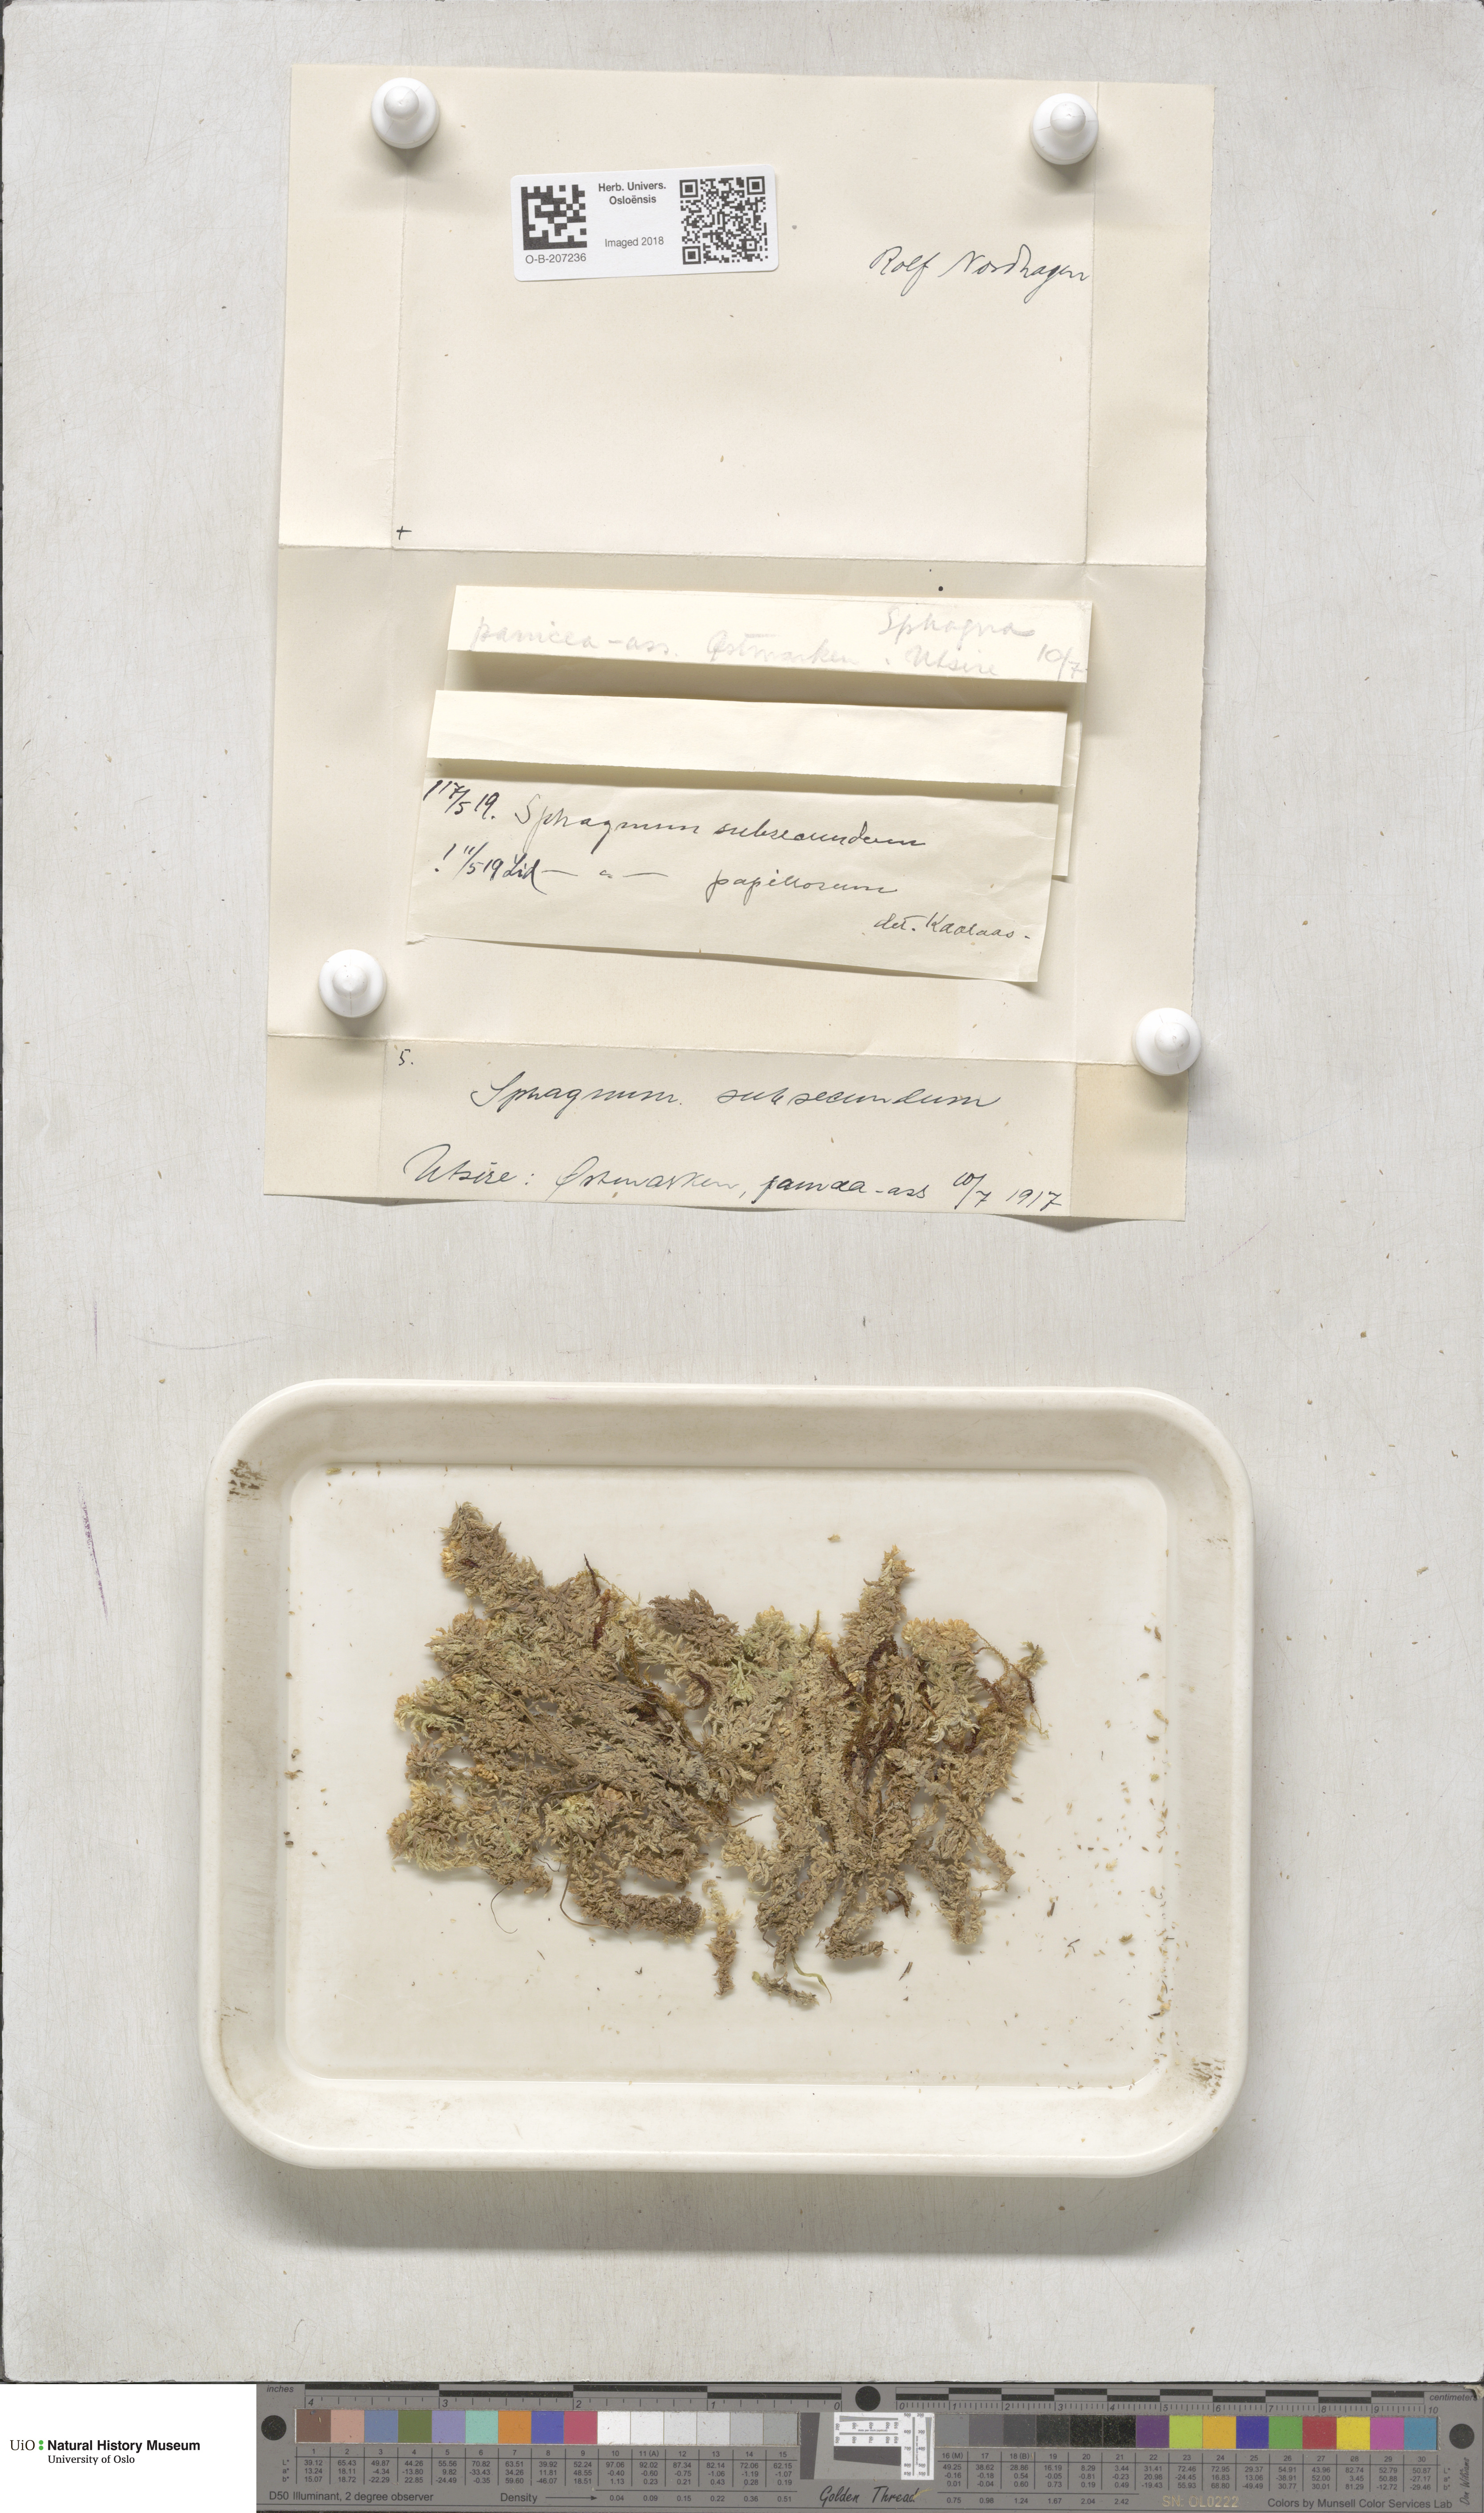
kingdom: Plantae
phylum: Bryophyta
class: Sphagnopsida
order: Sphagnales
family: Sphagnaceae
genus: Sphagnum
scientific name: Sphagnum subsecundum
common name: Orange peat moss
